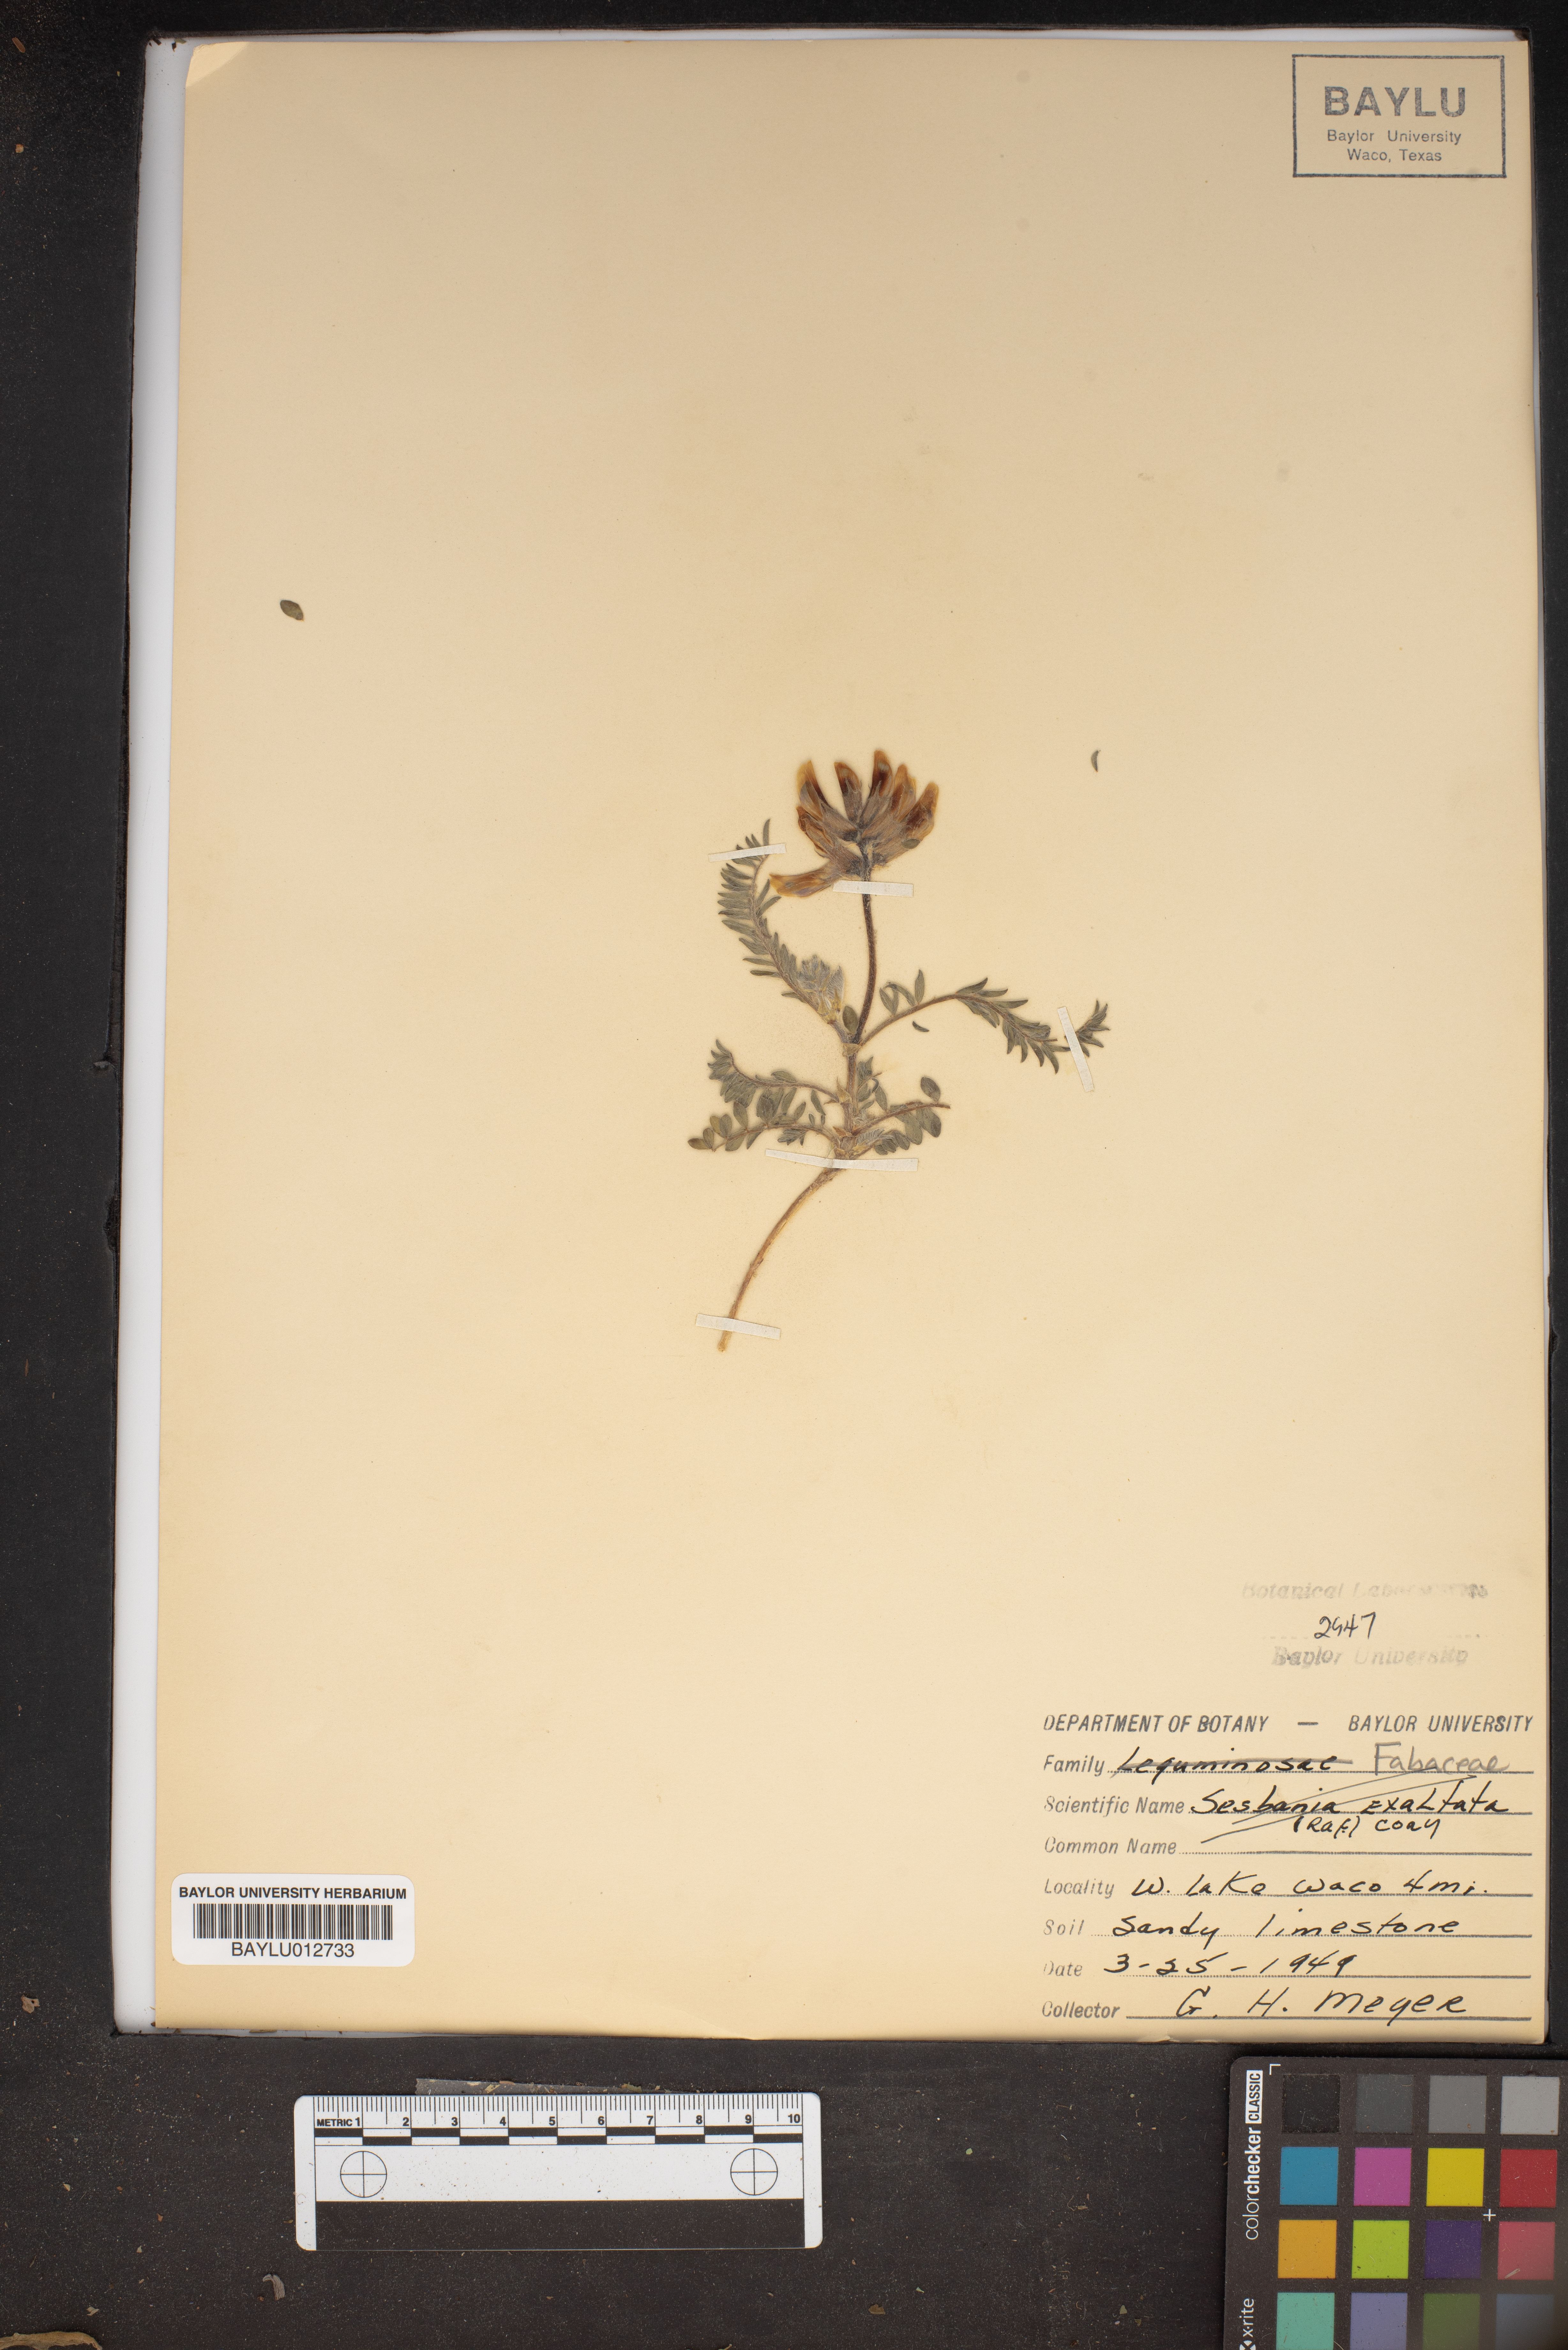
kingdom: Plantae
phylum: Tracheophyta
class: Magnoliopsida
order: Fabales
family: Fabaceae
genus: Sesbania
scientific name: Sesbania herbacea
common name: Bigpod sesbania
